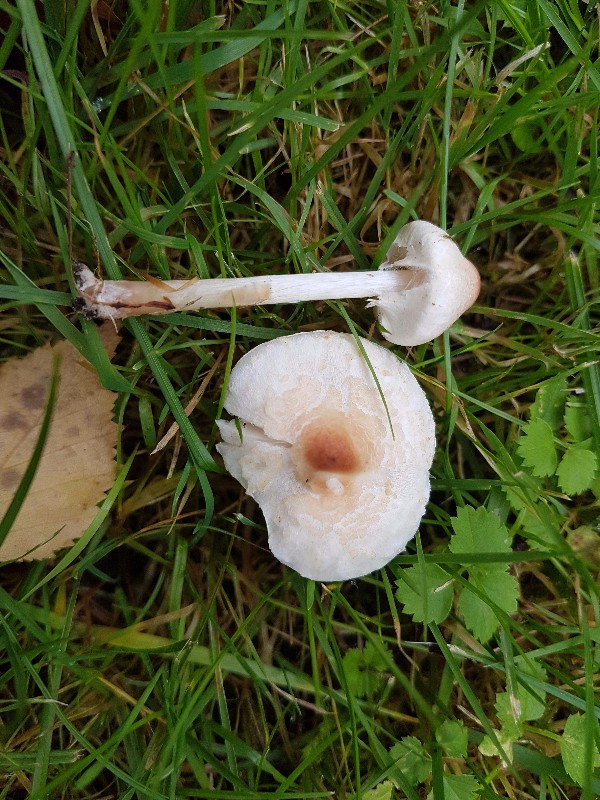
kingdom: Fungi
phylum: Basidiomycota
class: Agaricomycetes
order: Agaricales
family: Agaricaceae
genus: Lepiota
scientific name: Lepiota cristata
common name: stinkende parasolhat
